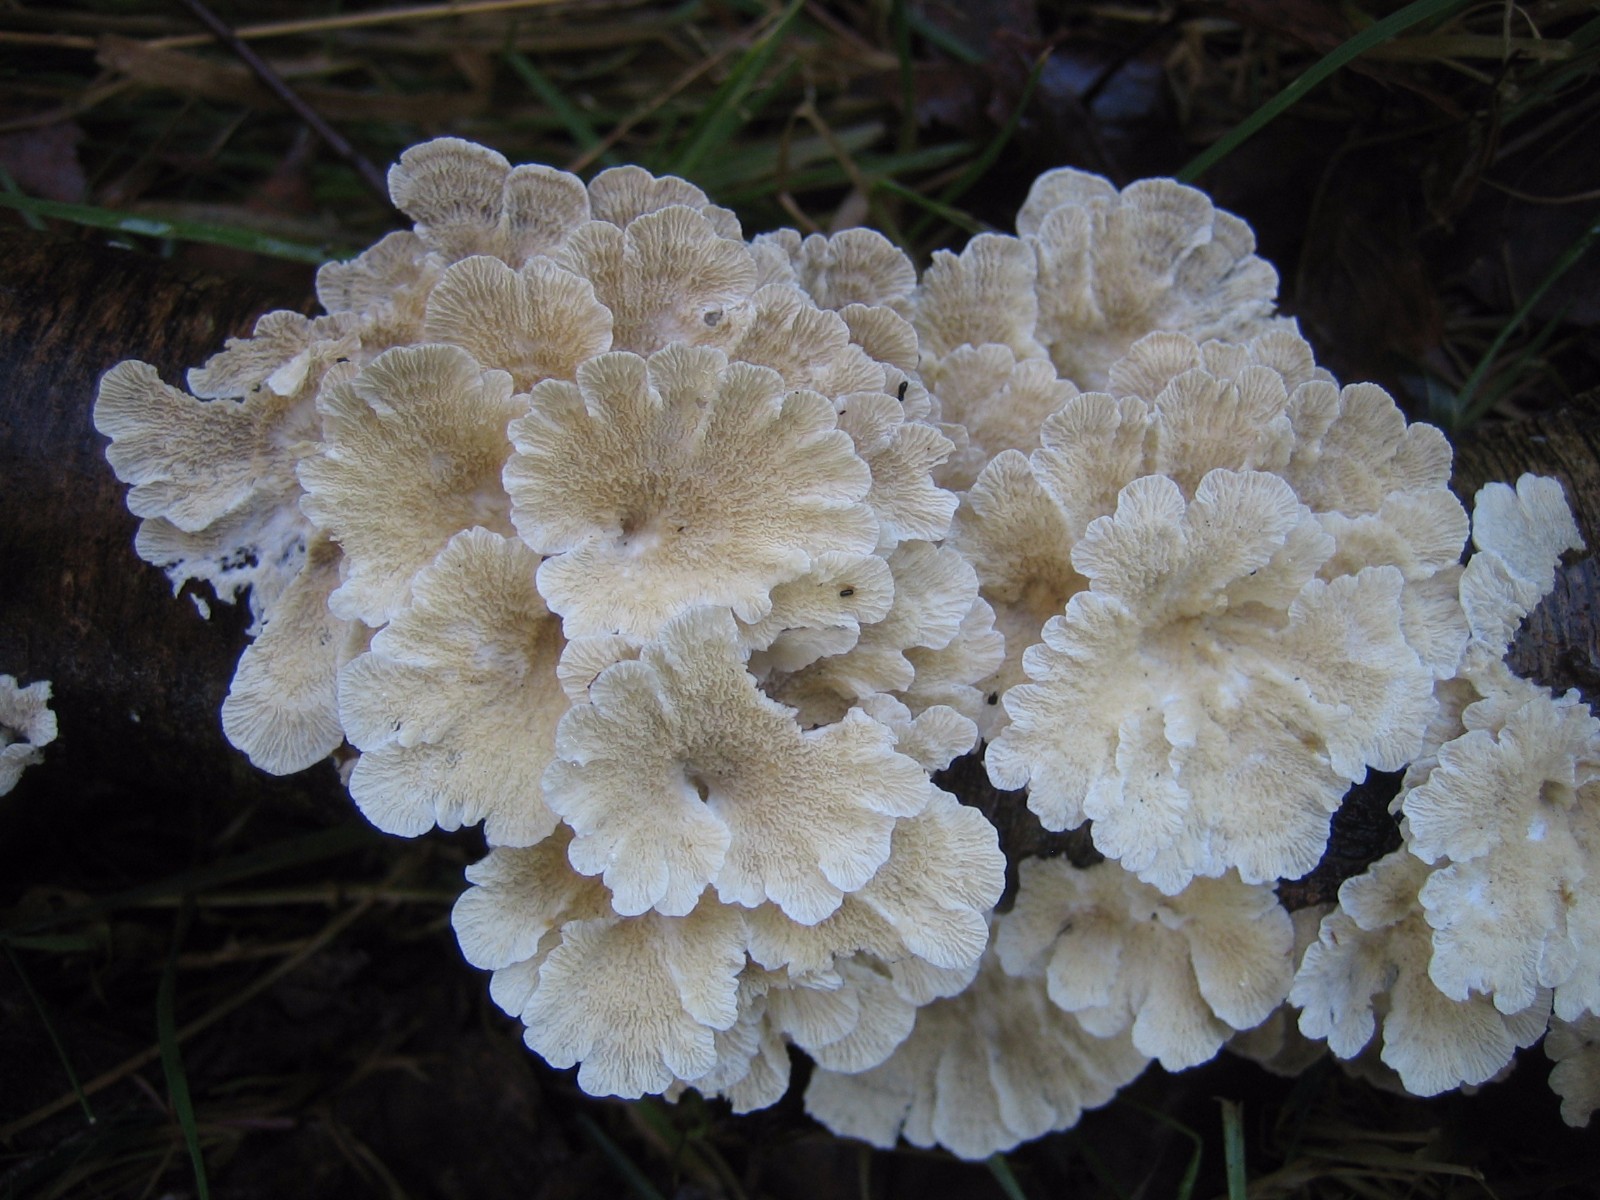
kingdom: Fungi
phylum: Basidiomycota
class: Agaricomycetes
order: Amylocorticiales
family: Amylocorticiaceae
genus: Plicaturopsis
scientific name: Plicaturopsis crispa
